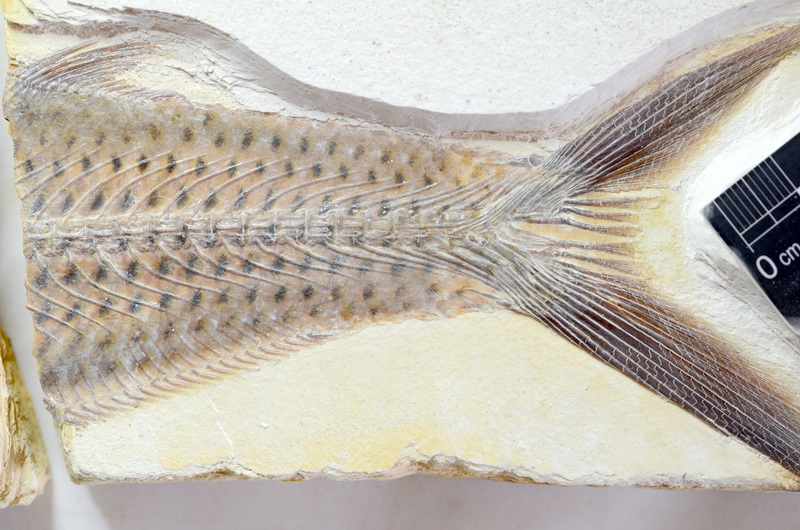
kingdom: Animalia
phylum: Chordata
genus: Thrissops
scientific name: Thrissops formosus
